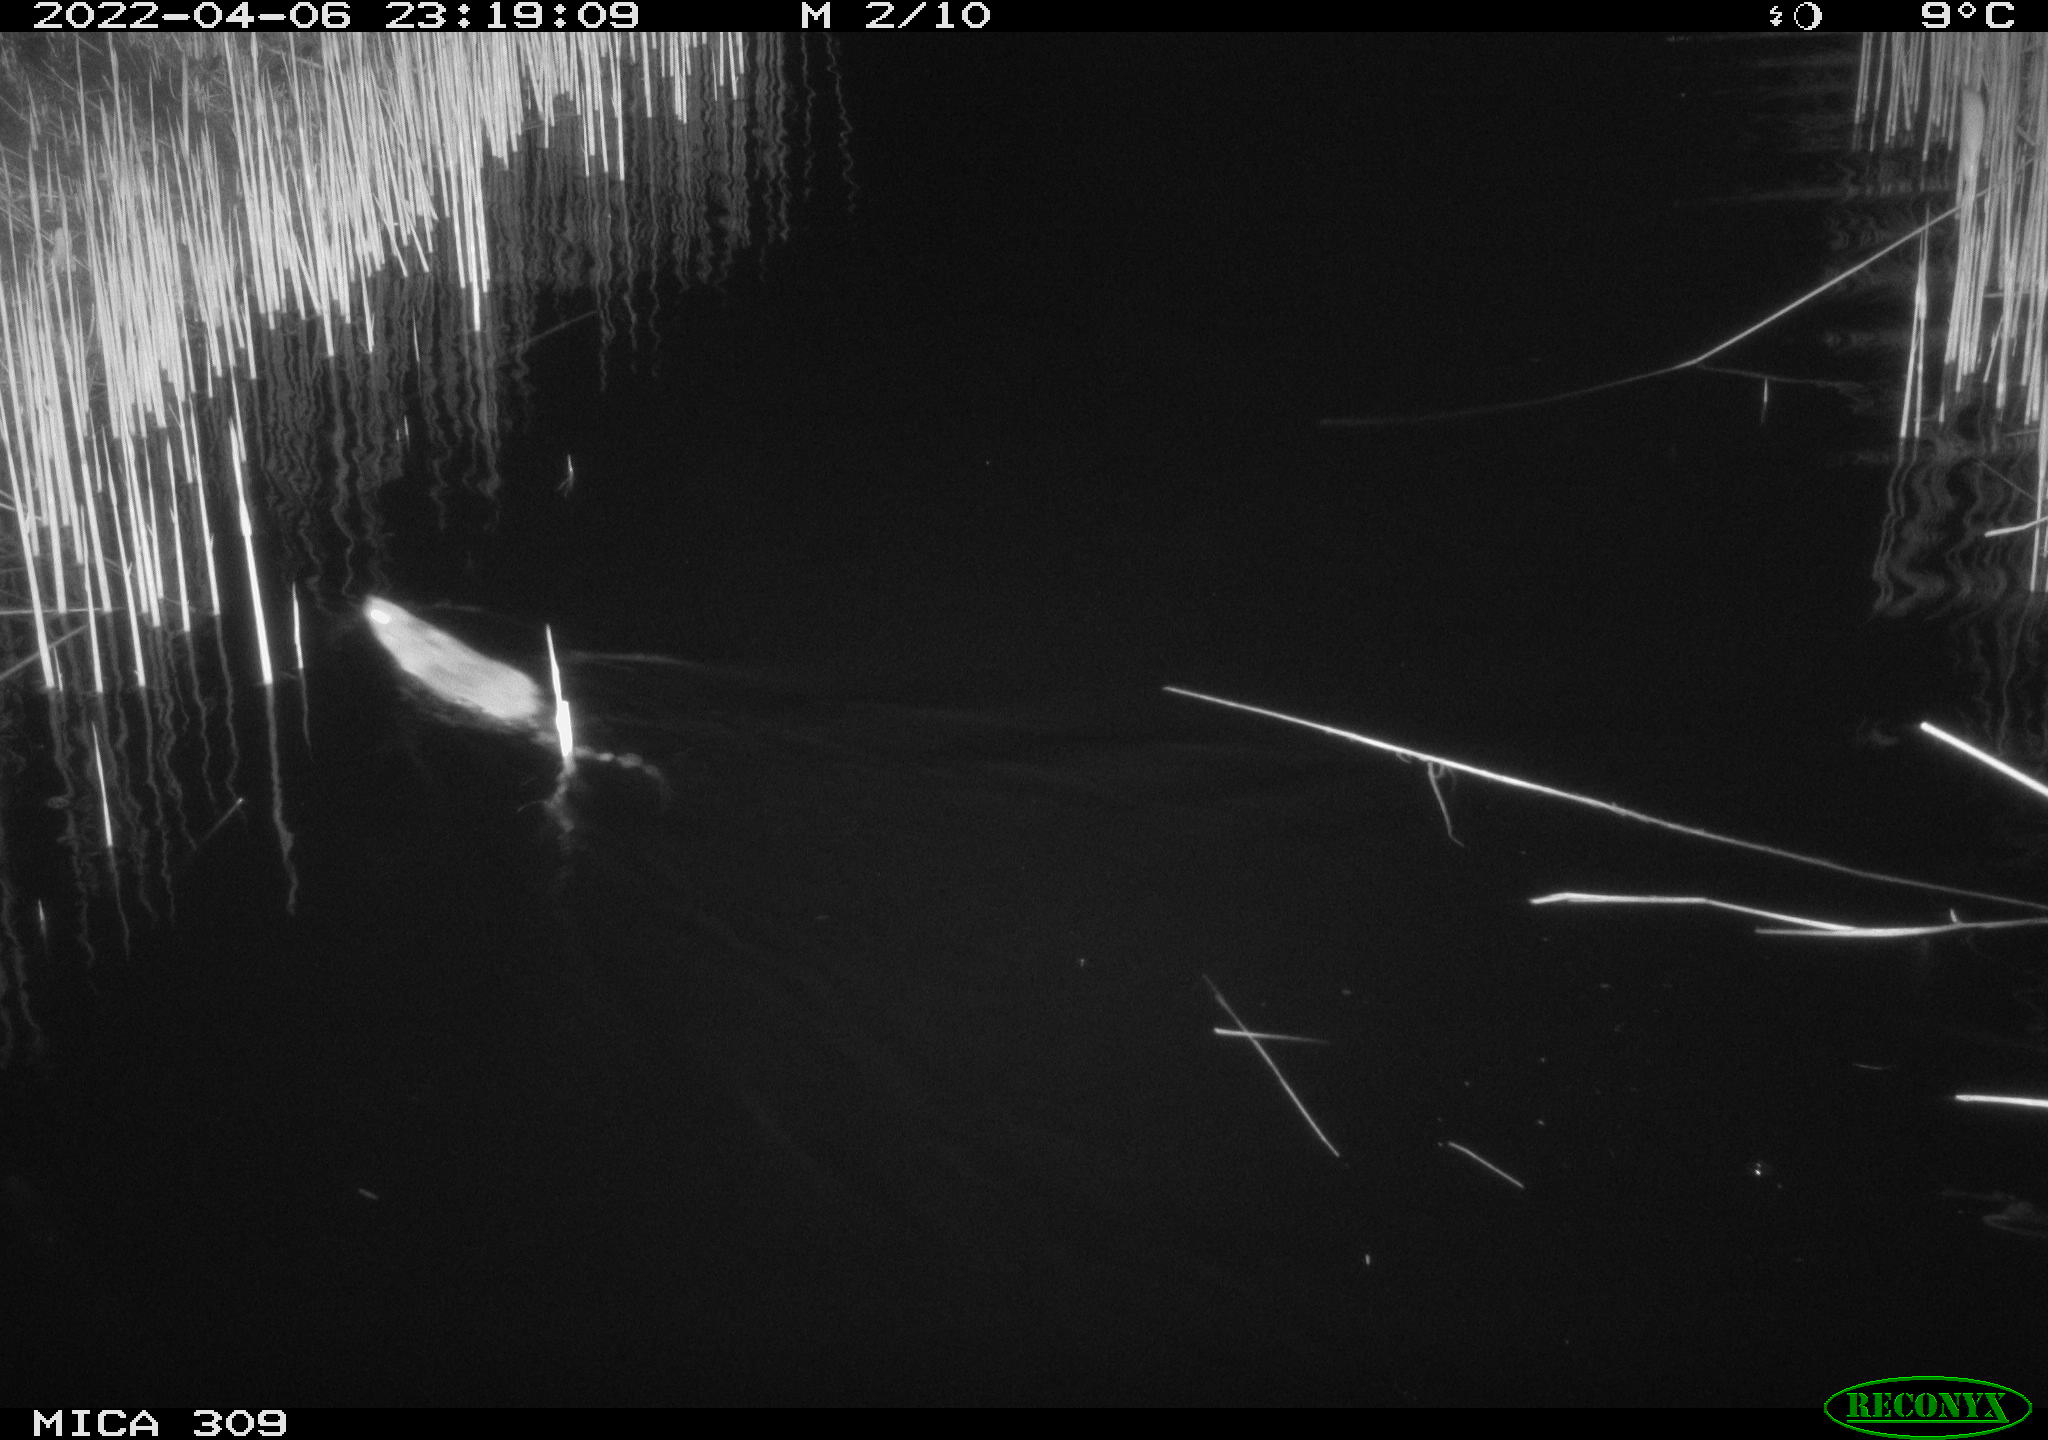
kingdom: Animalia
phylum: Chordata
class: Mammalia
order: Rodentia
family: Muridae
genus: Rattus
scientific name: Rattus norvegicus
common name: Brown rat
